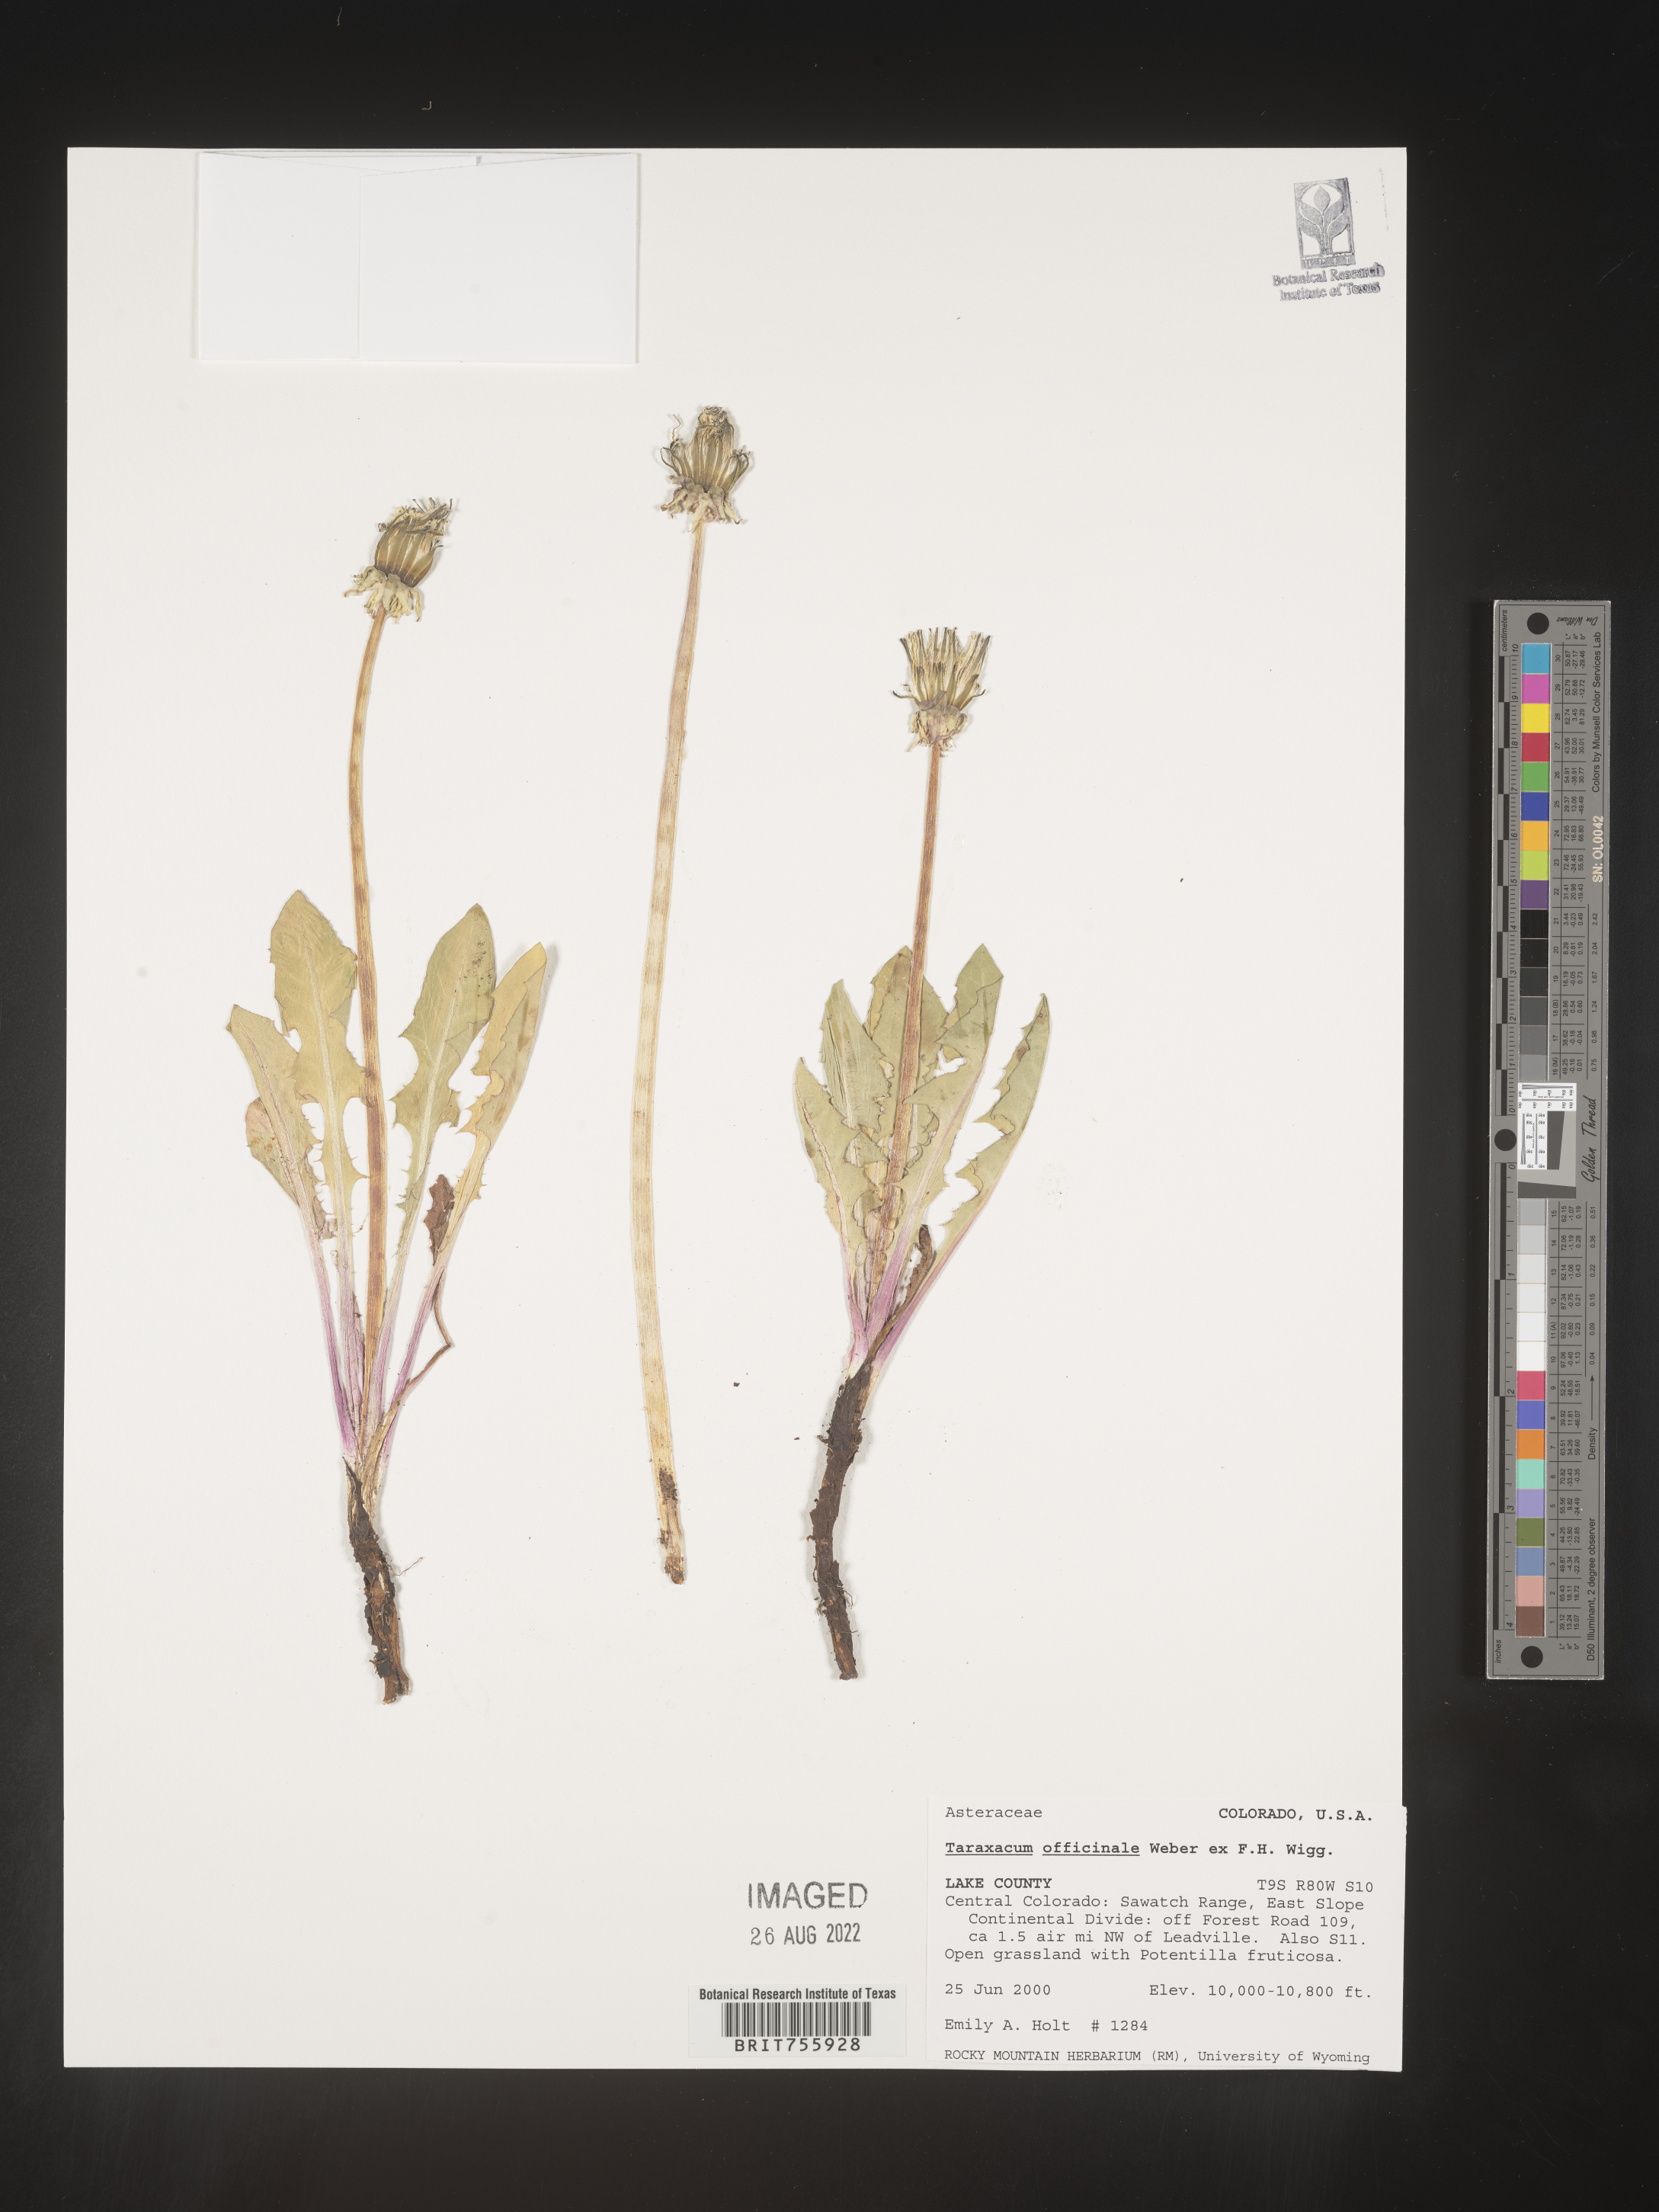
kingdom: Plantae
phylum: Tracheophyta
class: Magnoliopsida
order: Asterales
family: Asteraceae
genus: Taraxacum
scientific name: Taraxacum officinale
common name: Common dandelion
